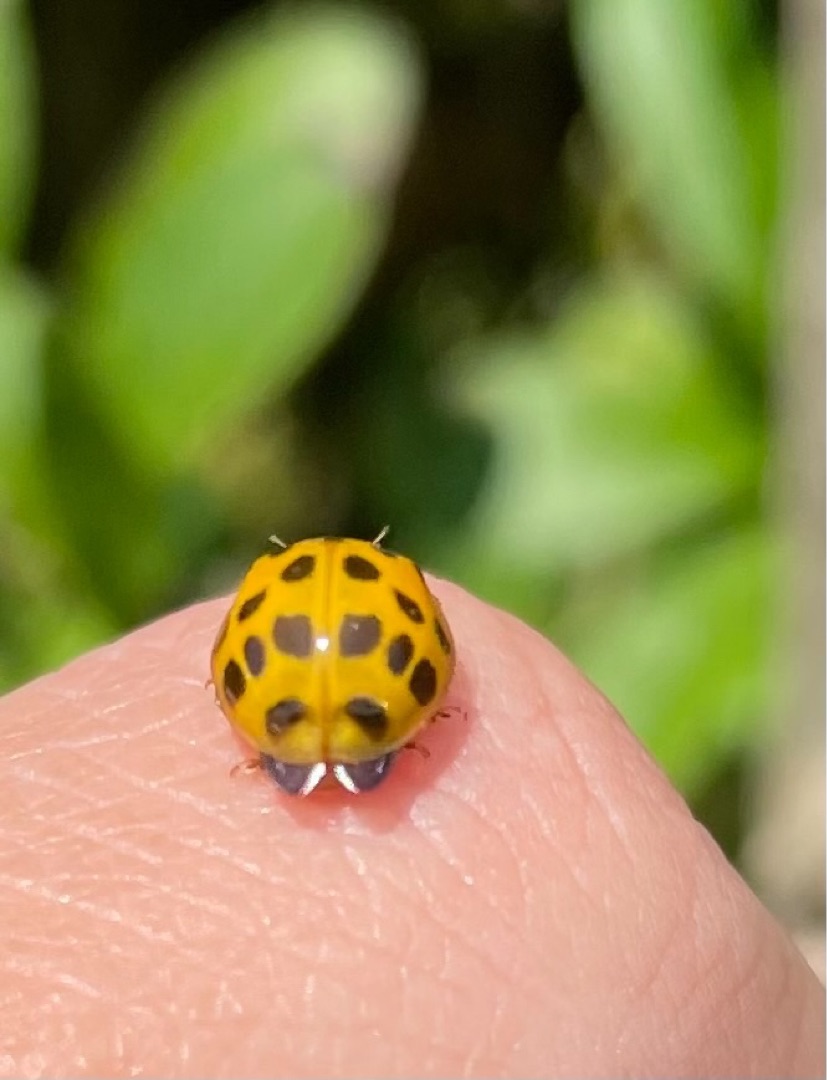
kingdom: Animalia
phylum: Arthropoda
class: Insecta
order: Coleoptera
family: Coccinellidae
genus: Harmonia
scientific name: Harmonia axyridis
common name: Harlekinmariehøne
